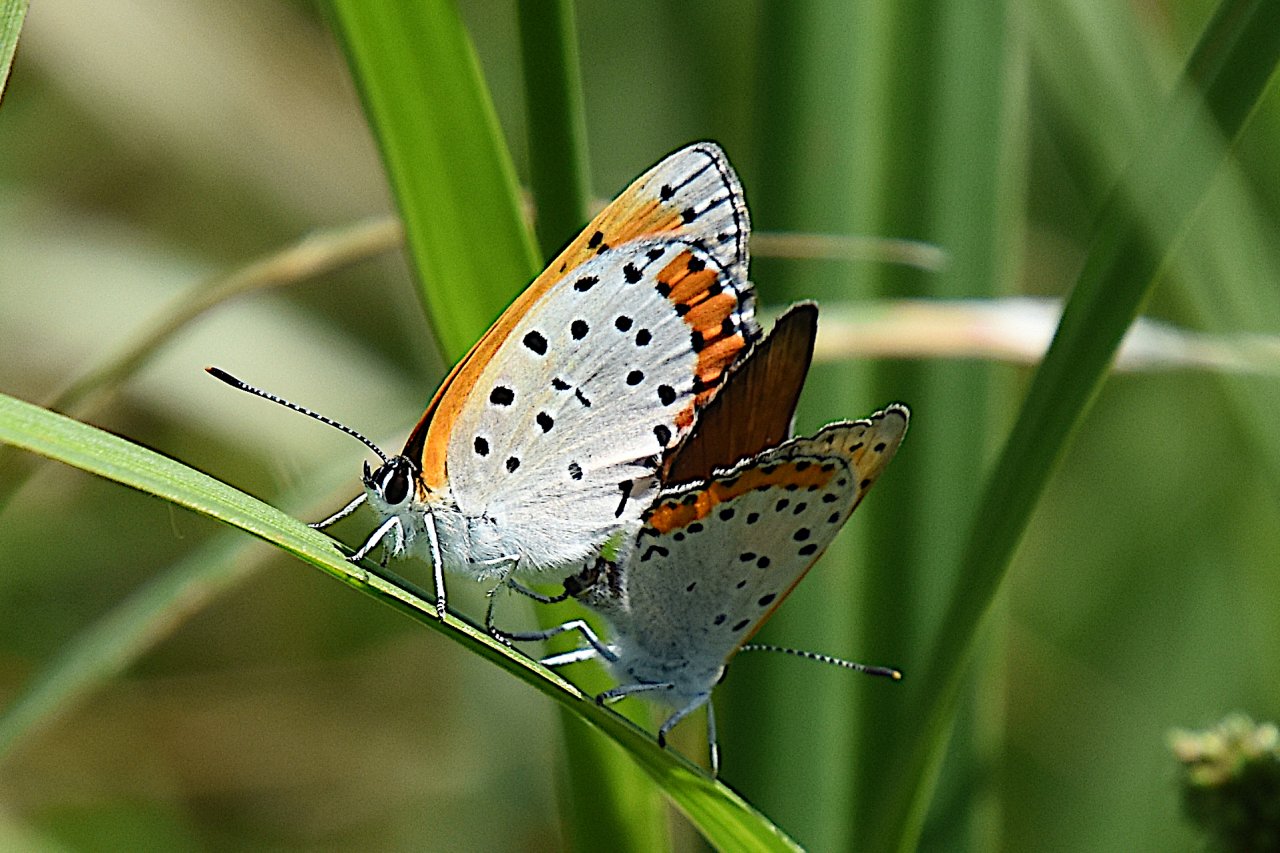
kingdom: Animalia
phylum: Arthropoda
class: Insecta
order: Lepidoptera
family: Sesiidae
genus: Sesia
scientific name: Sesia Lycaena hyllus
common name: Bronze Copper
